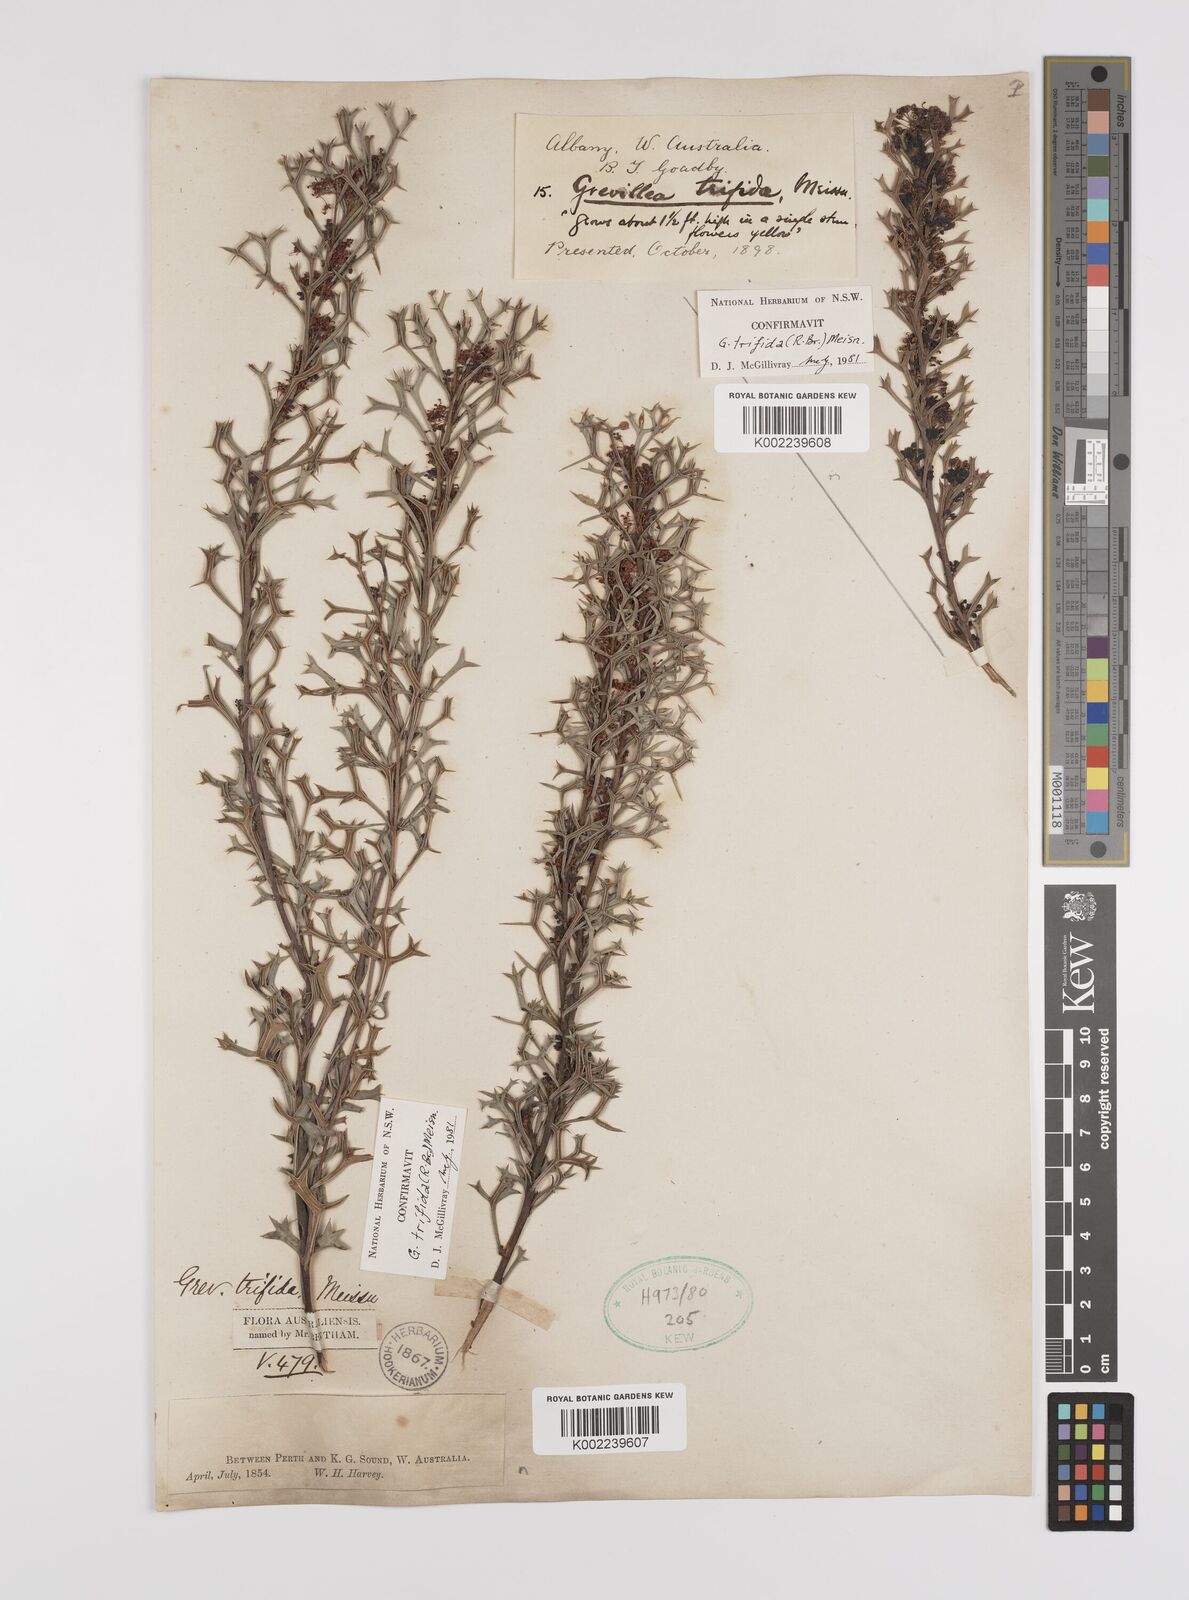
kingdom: Plantae
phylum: Tracheophyta
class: Magnoliopsida
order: Proteales
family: Proteaceae
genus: Grevillea
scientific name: Grevillea trifida
